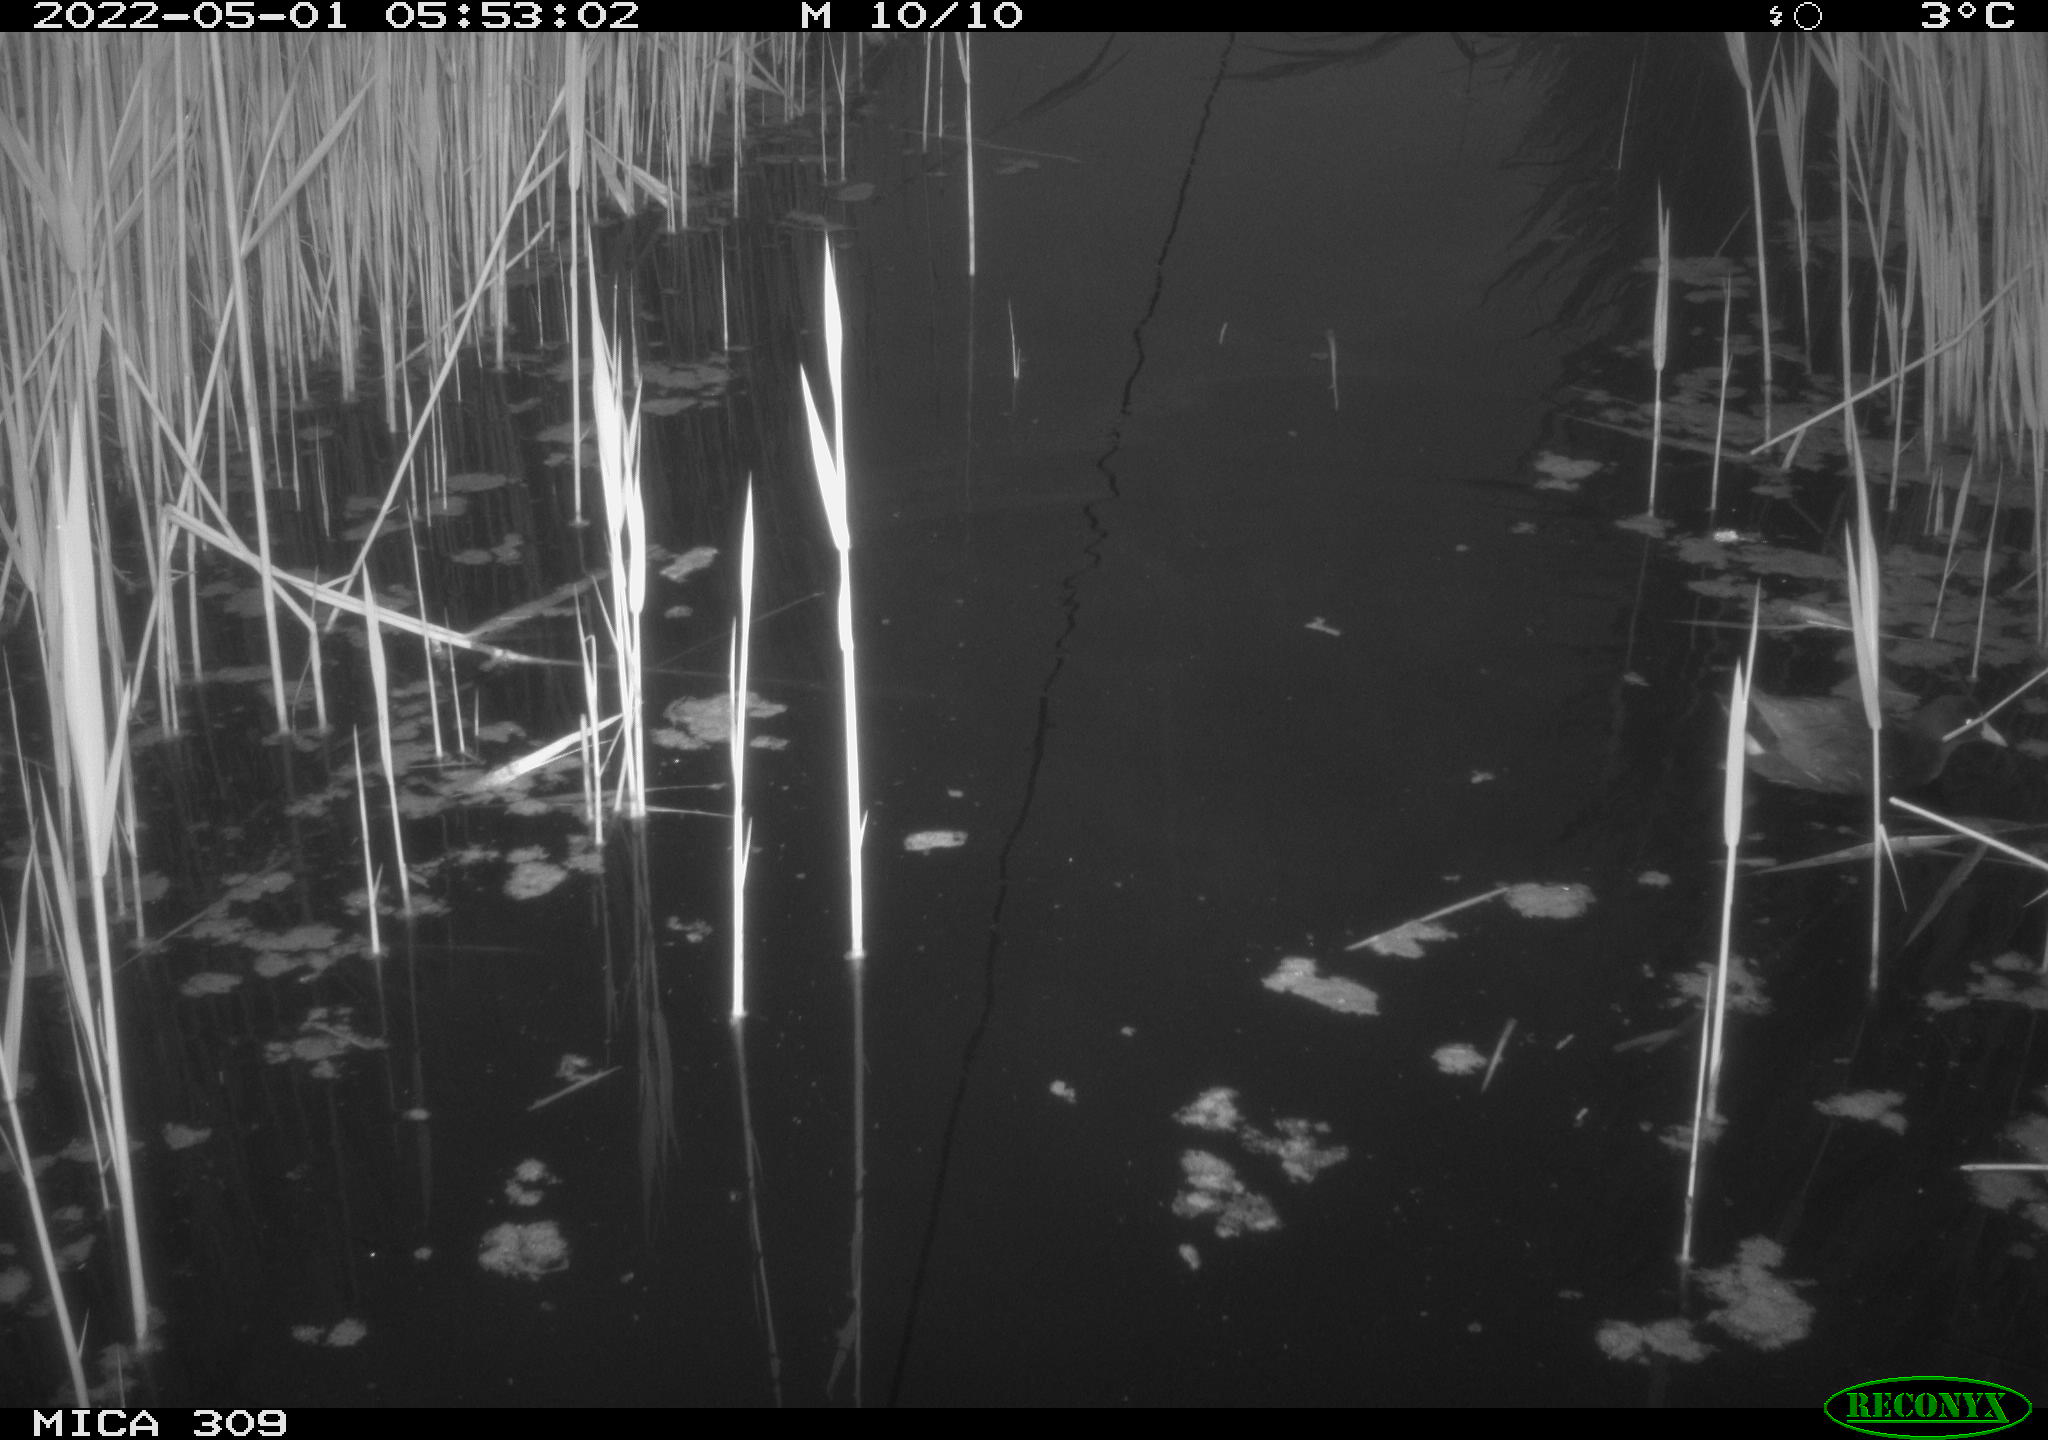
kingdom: Animalia
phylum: Chordata
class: Aves
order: Gruiformes
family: Rallidae
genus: Gallinula
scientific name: Gallinula chloropus
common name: Common moorhen
